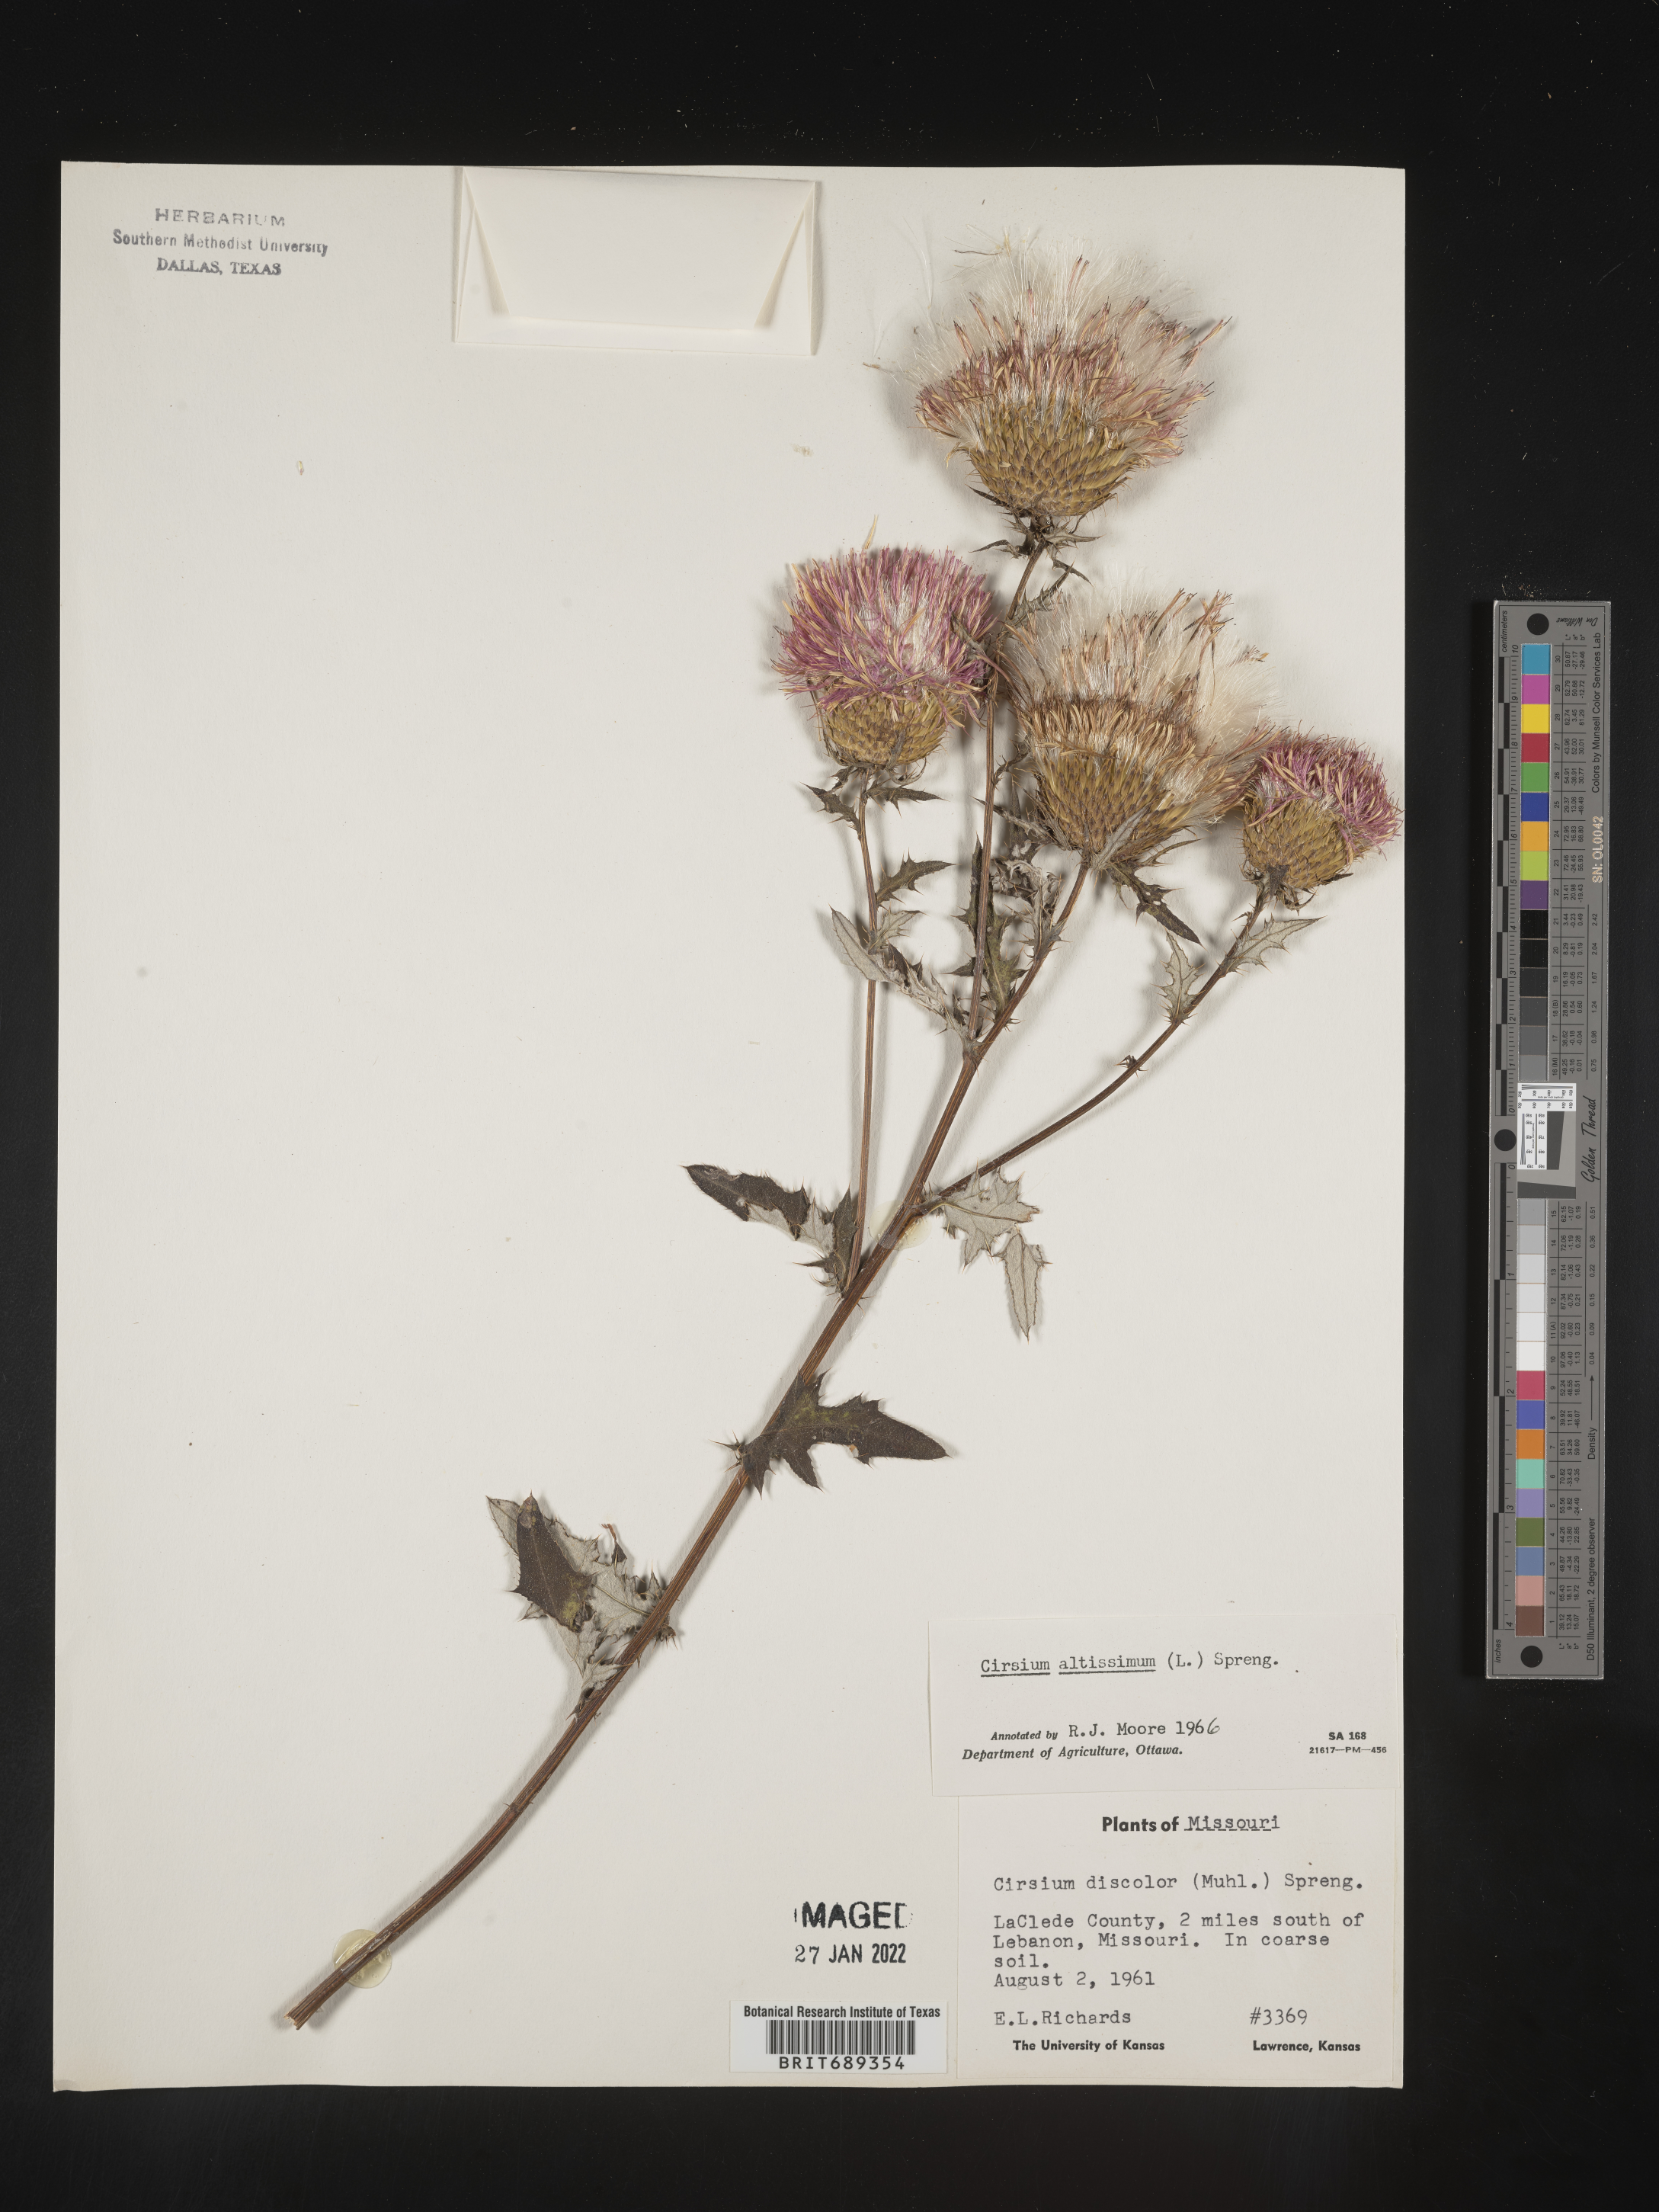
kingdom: Plantae
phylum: Tracheophyta
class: Magnoliopsida
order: Asterales
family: Asteraceae
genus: Cirsium
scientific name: Cirsium altissimum
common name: Roadside thistle
